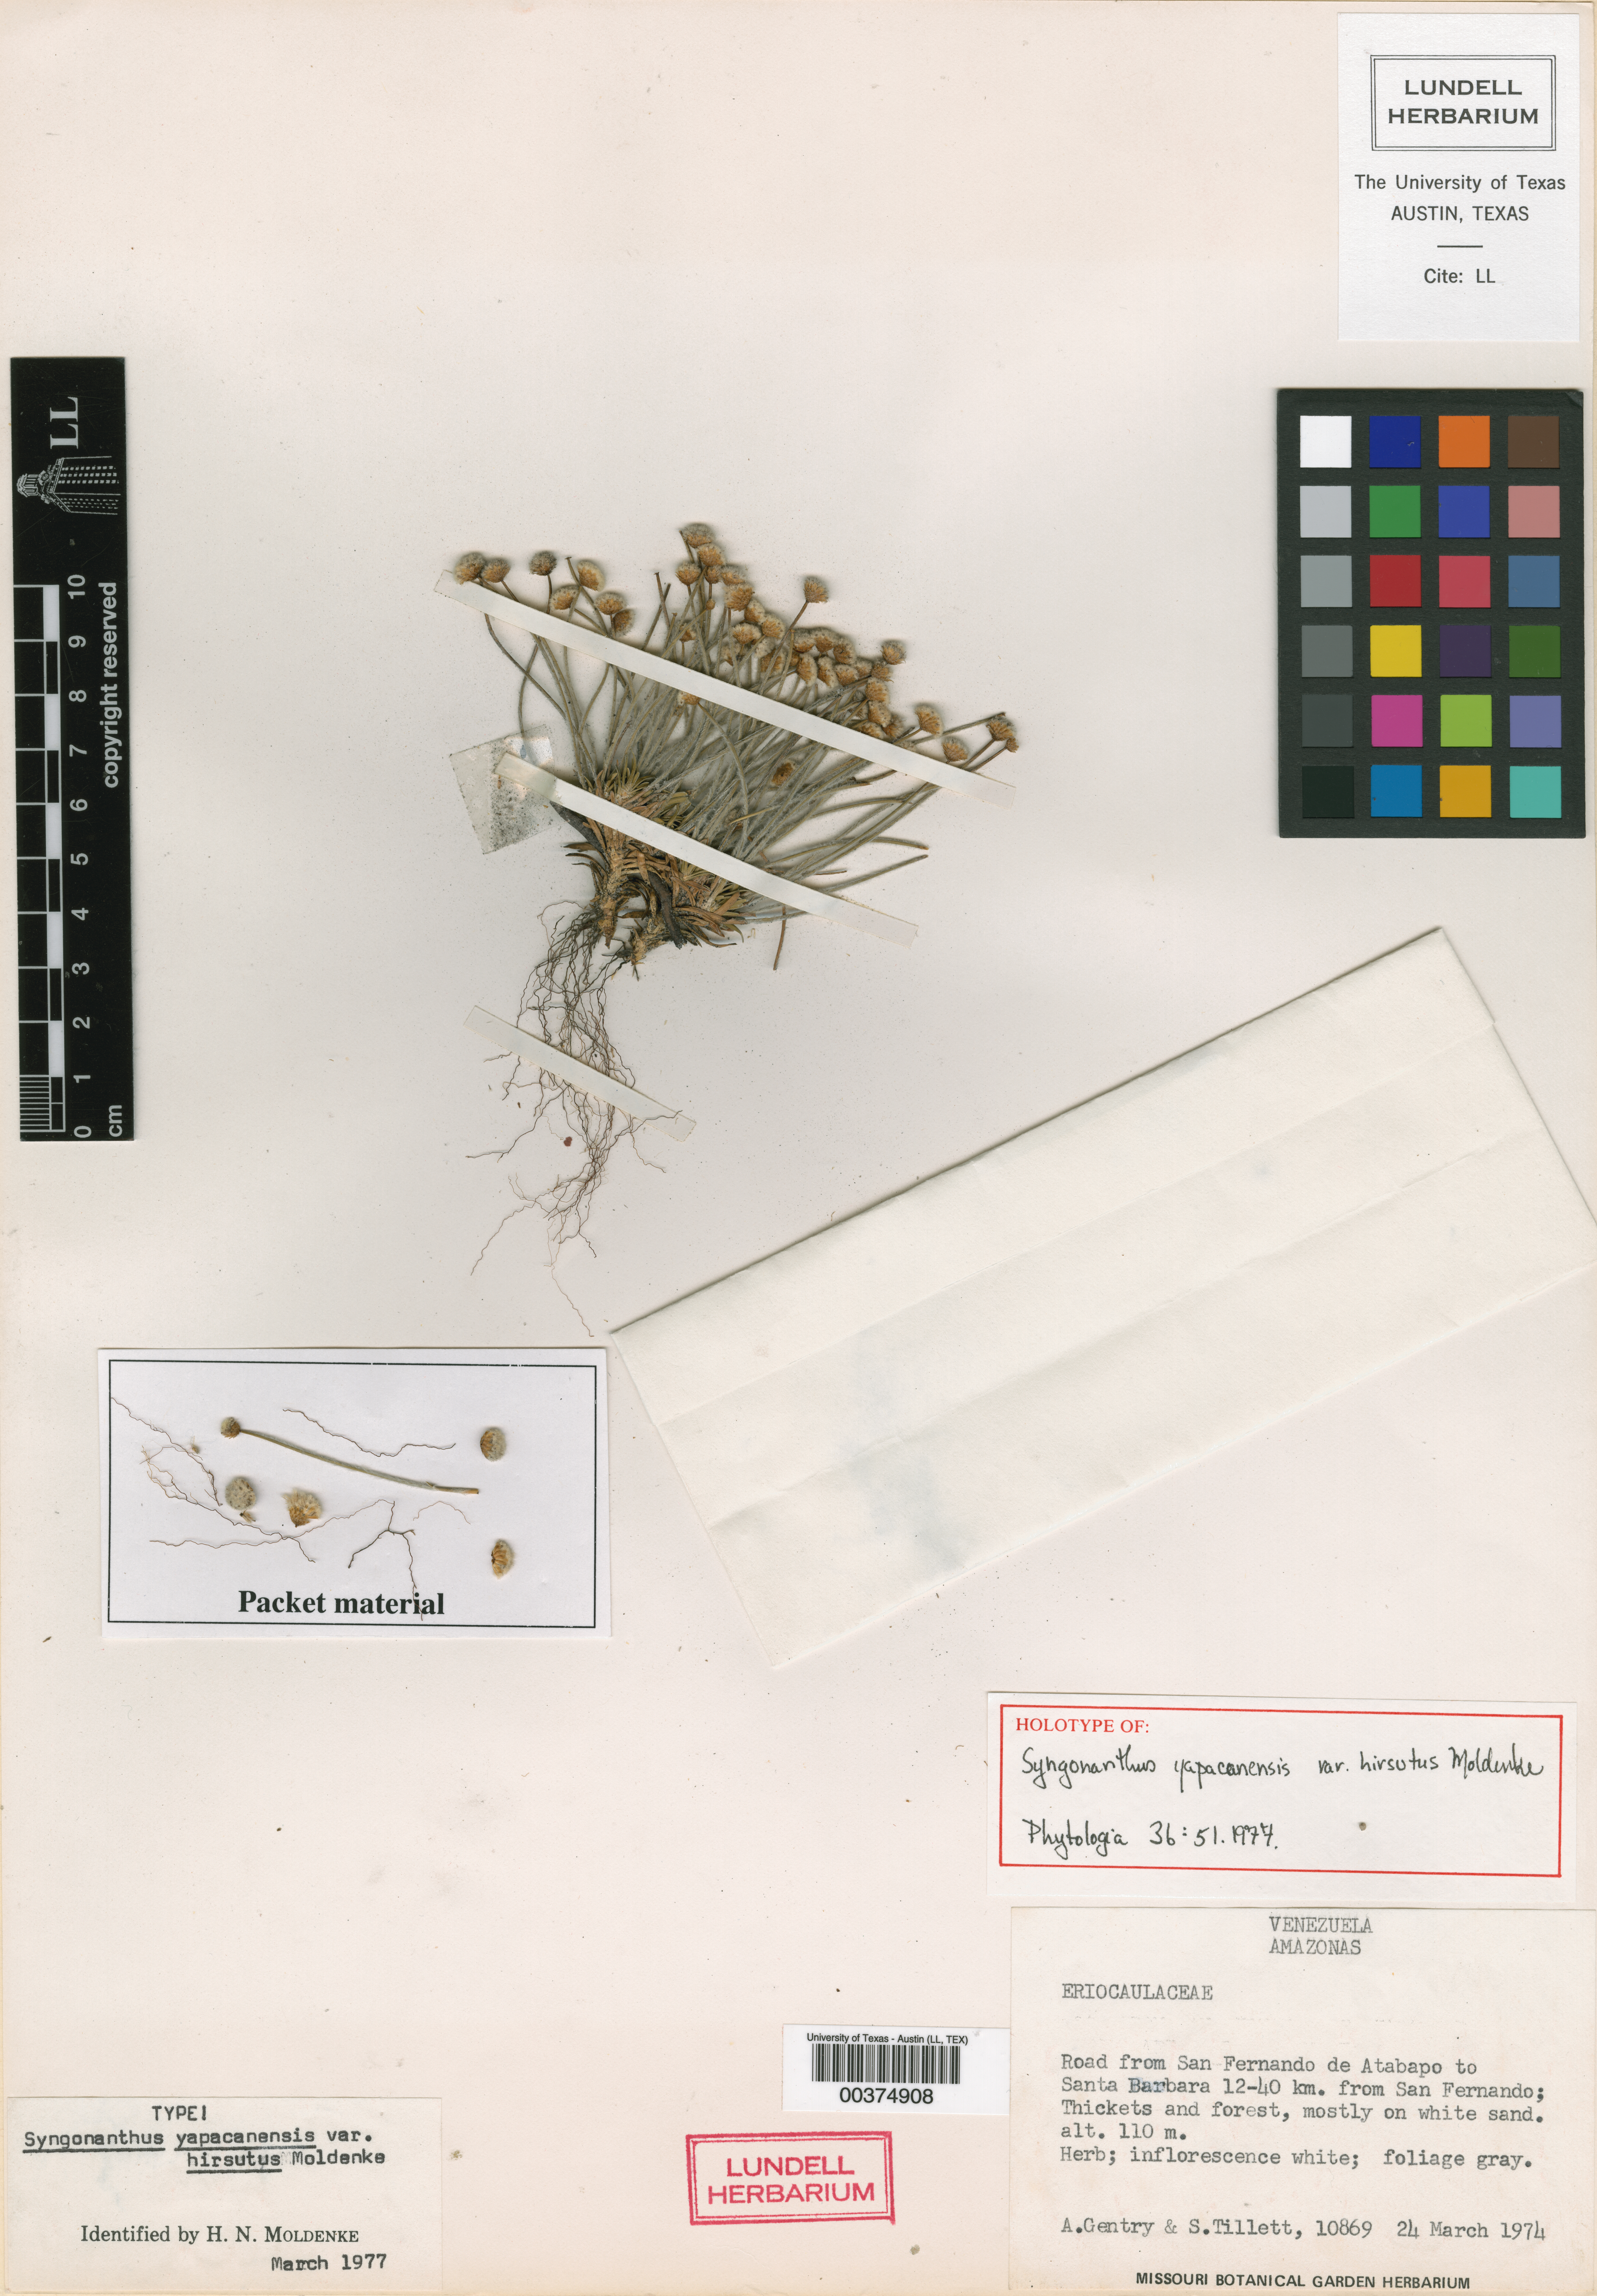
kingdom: Plantae
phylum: Tracheophyta
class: Liliopsida
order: Poales
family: Eriocaulaceae
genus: Paepalanthus
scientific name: Paepalanthus yapacanensis
